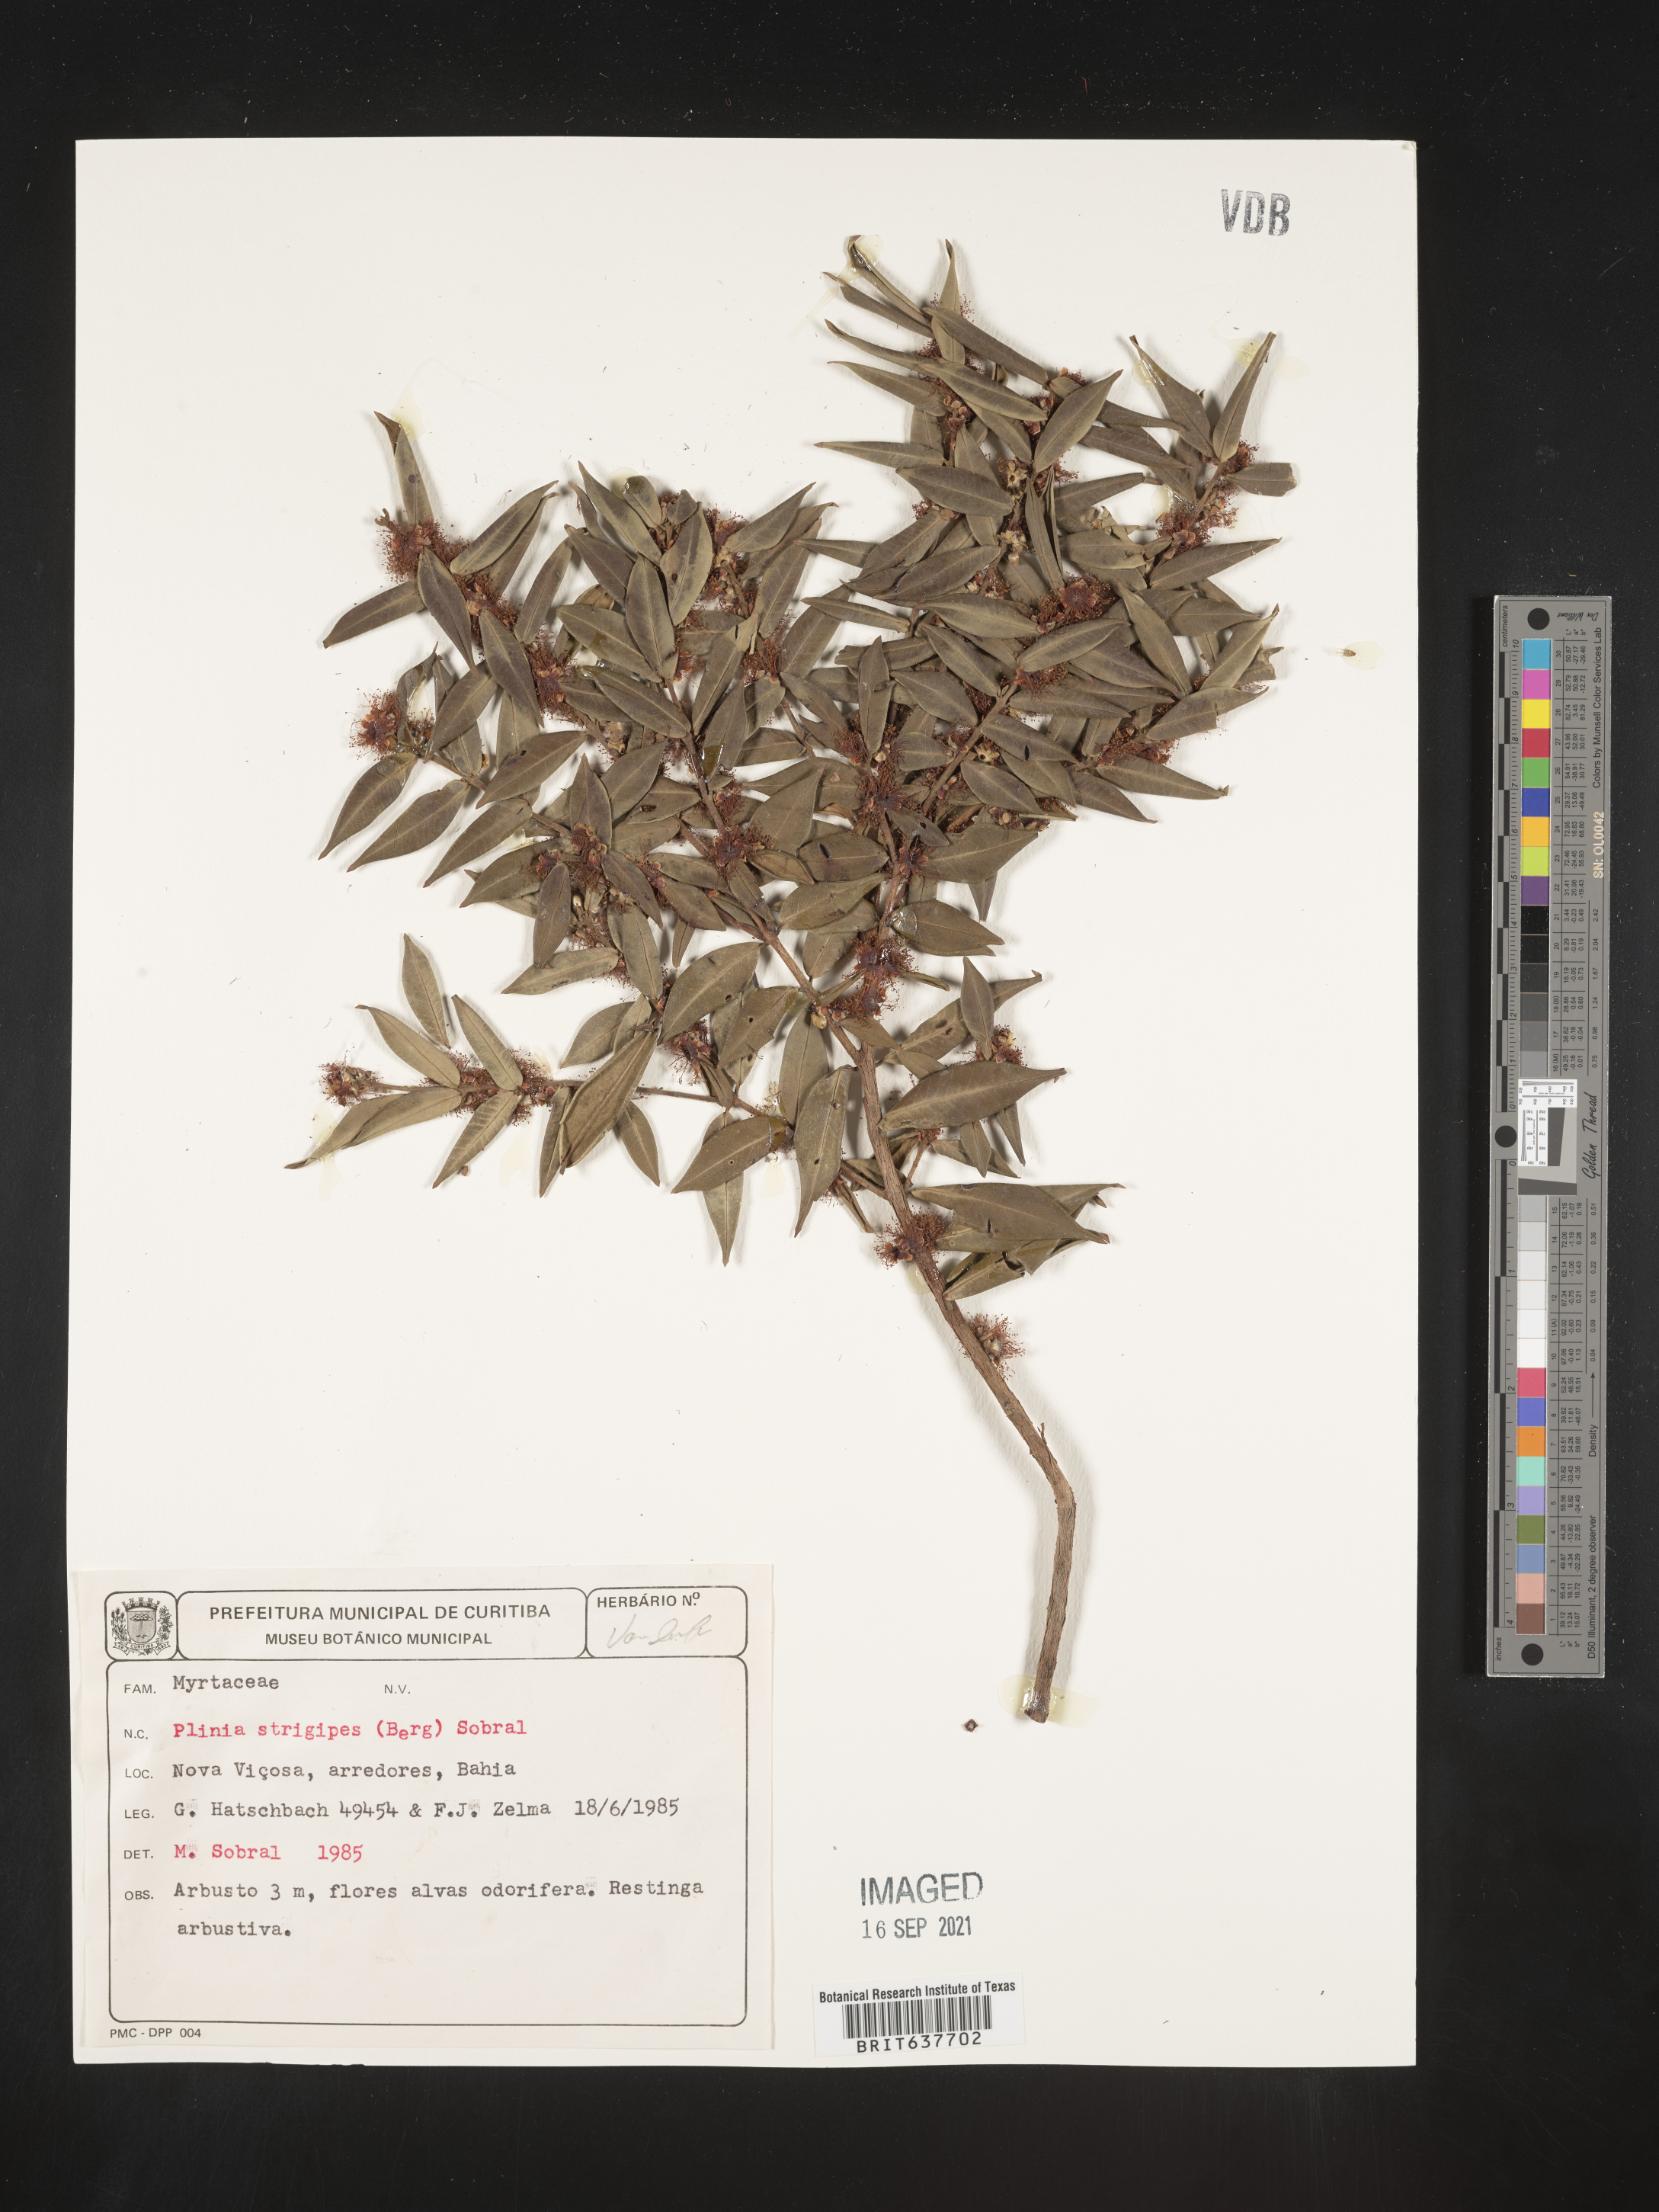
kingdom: Plantae
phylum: Tracheophyta
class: Magnoliopsida
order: Myrtales
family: Myrtaceae
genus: Plinia
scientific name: Plinia
